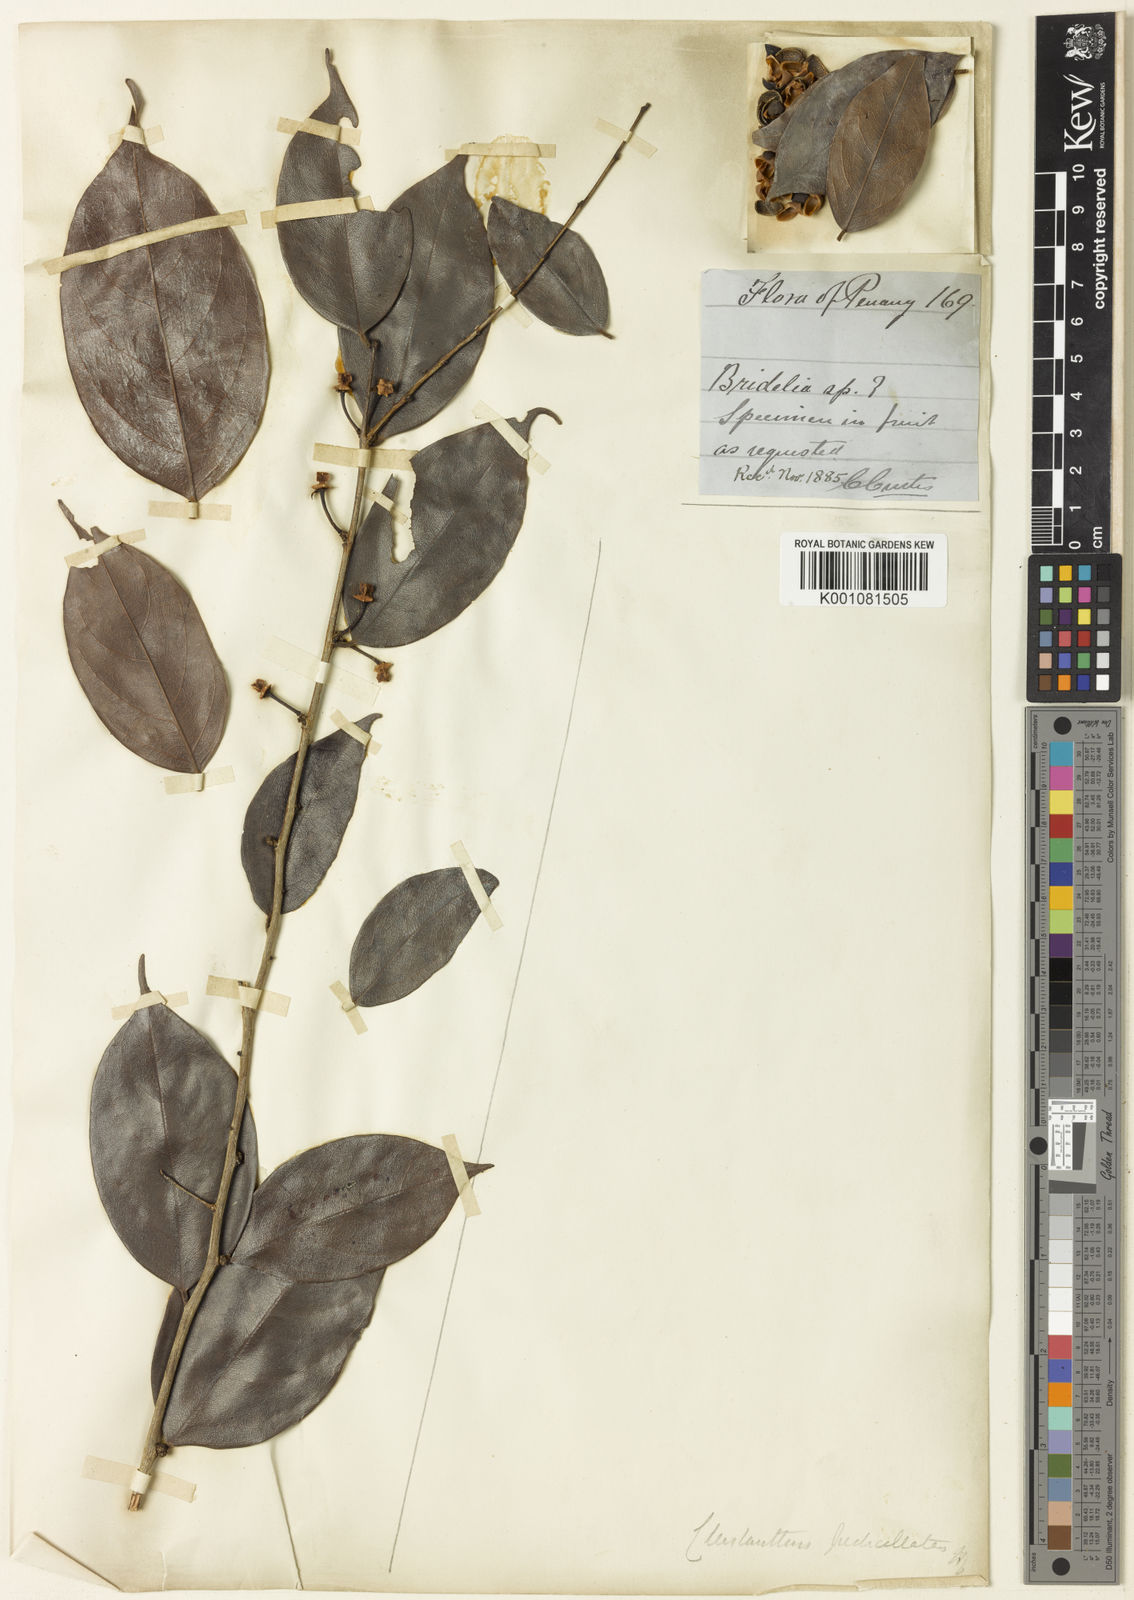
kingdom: Plantae
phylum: Tracheophyta
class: Magnoliopsida
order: Malpighiales
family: Phyllanthaceae
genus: Cleistanthus
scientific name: Cleistanthus pedicellatus
